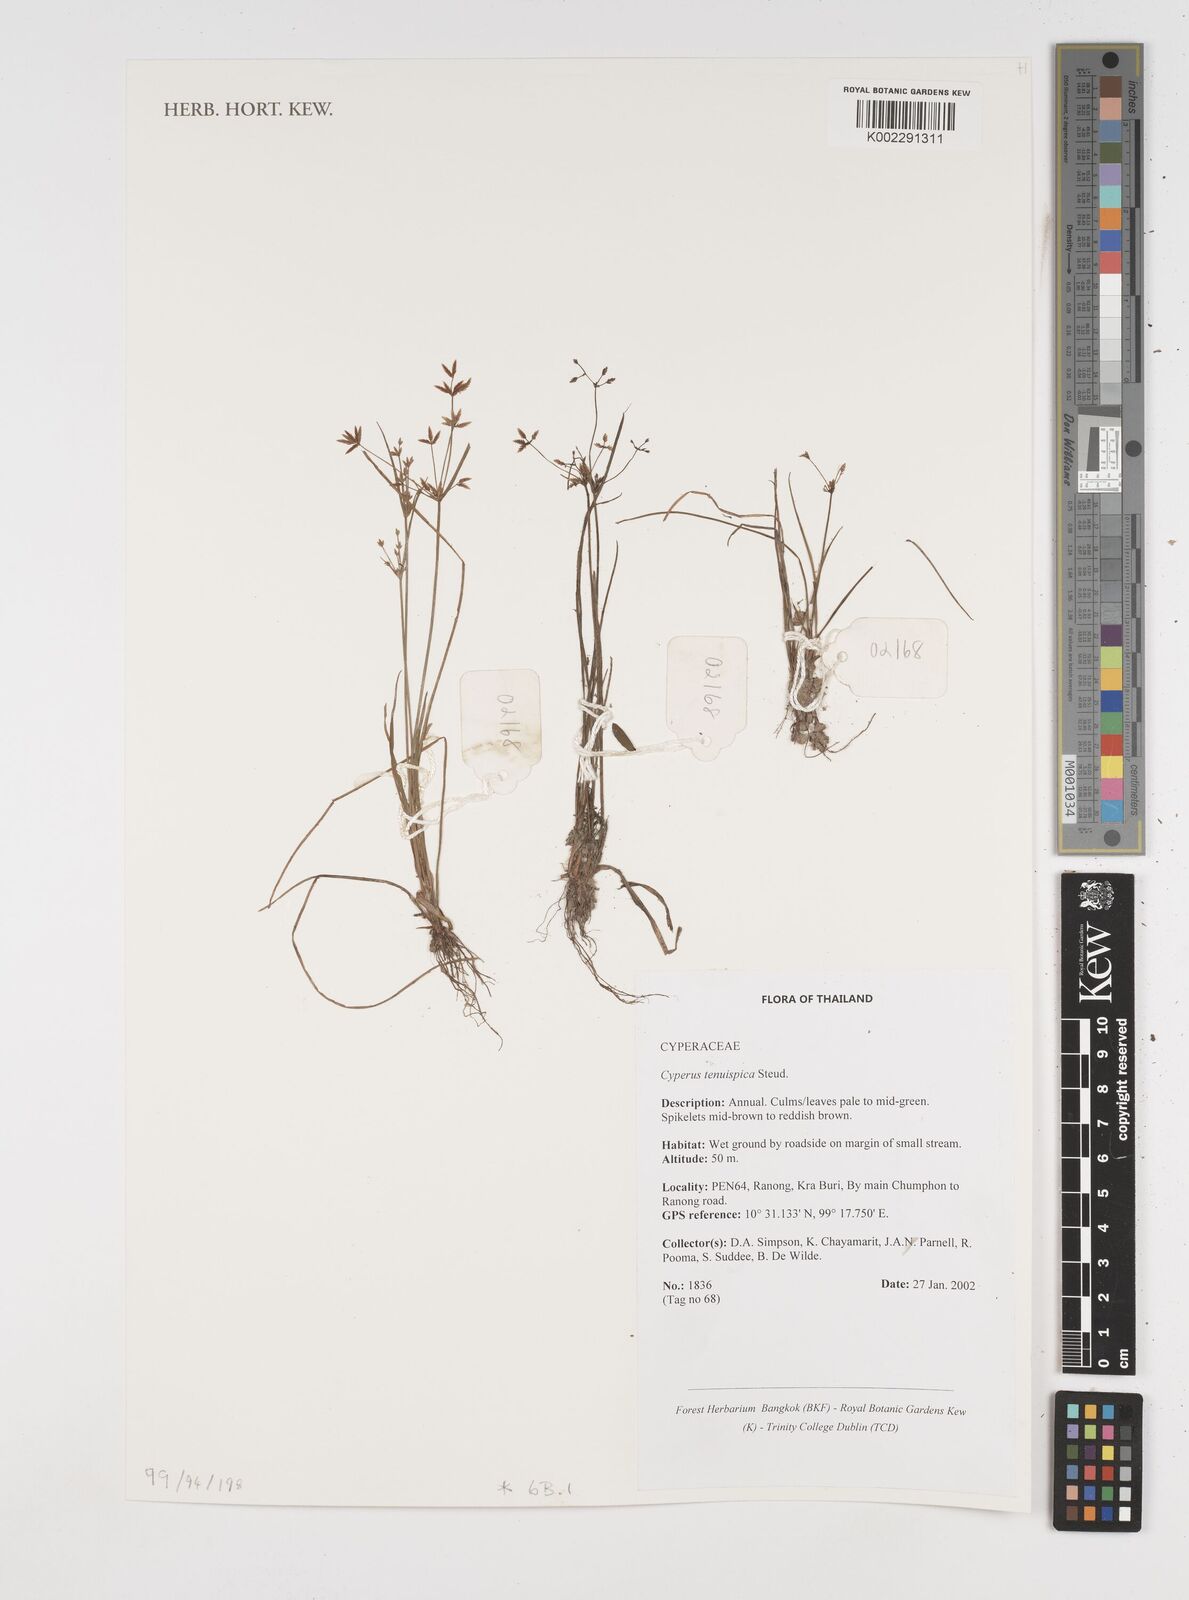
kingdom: Plantae
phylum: Tracheophyta
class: Liliopsida
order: Poales
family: Cyperaceae
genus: Cyperus
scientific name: Cyperus tenuispica
